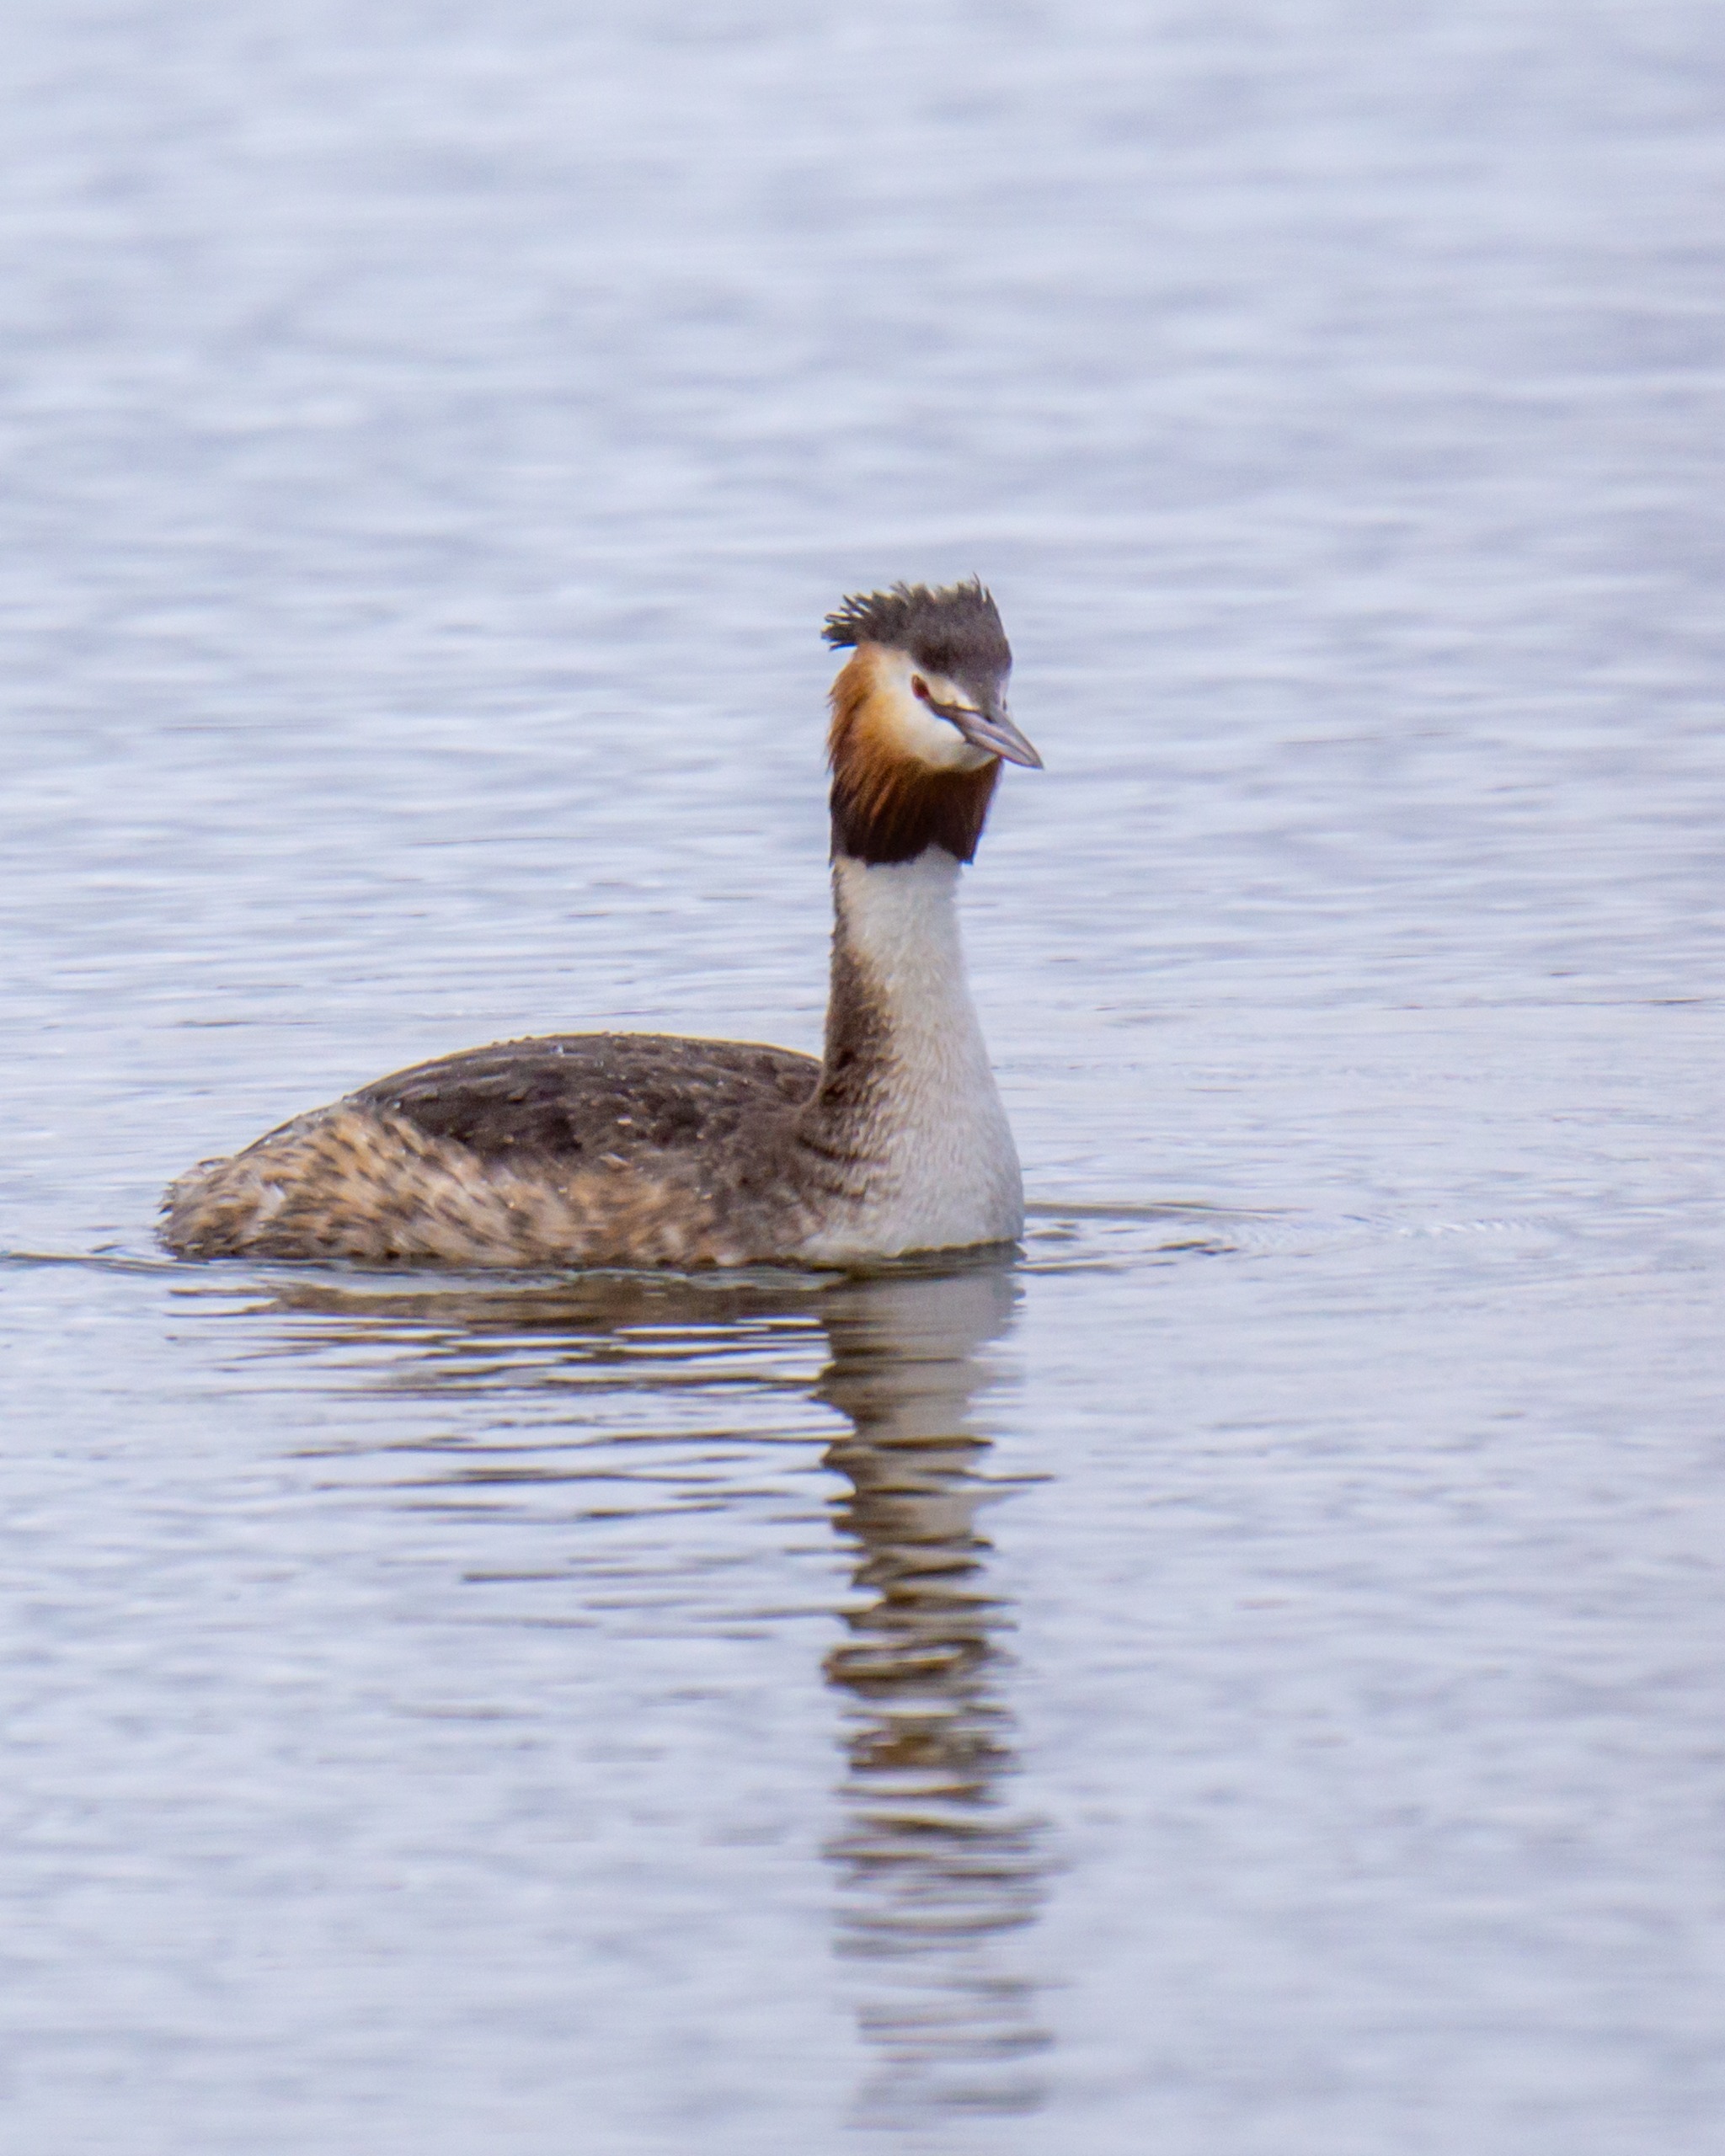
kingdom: Animalia
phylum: Chordata
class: Aves
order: Podicipediformes
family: Podicipedidae
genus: Podiceps
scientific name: Podiceps cristatus
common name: Toppet lappedykker
